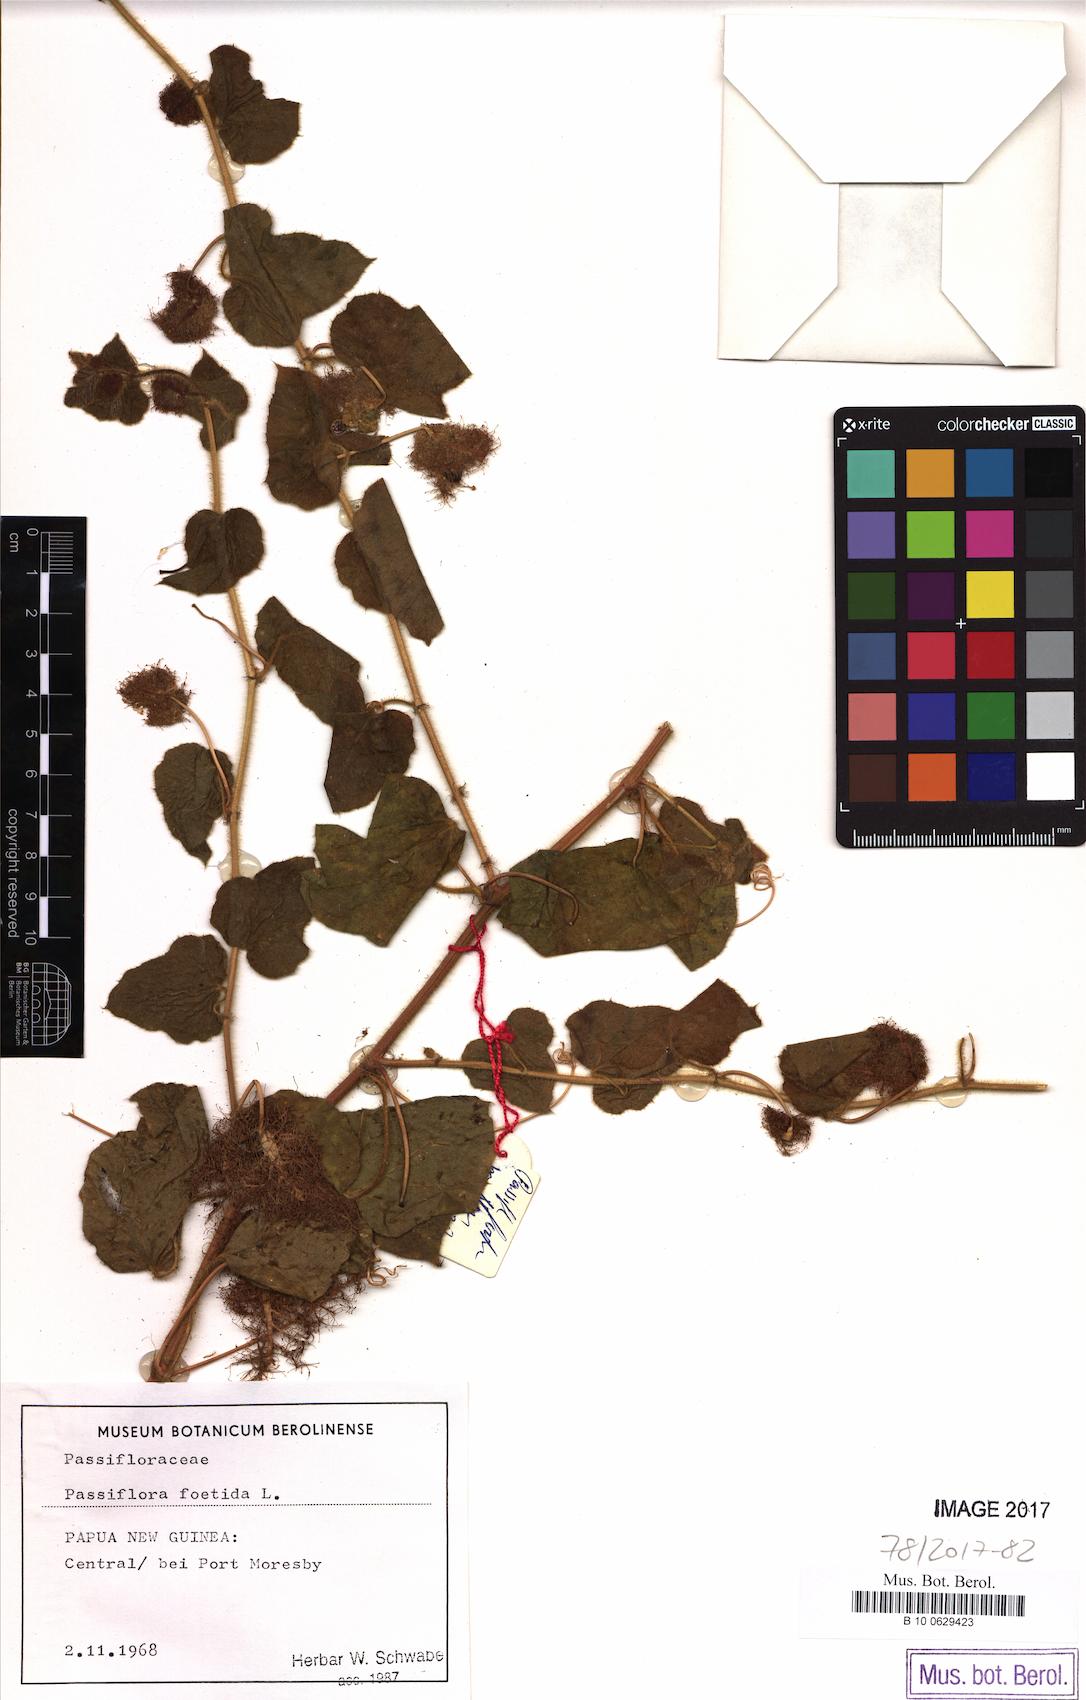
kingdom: Plantae
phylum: Tracheophyta
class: Magnoliopsida
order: Malpighiales
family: Passifloraceae
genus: Passiflora
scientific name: Passiflora foetida
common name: Fetid passionflower
